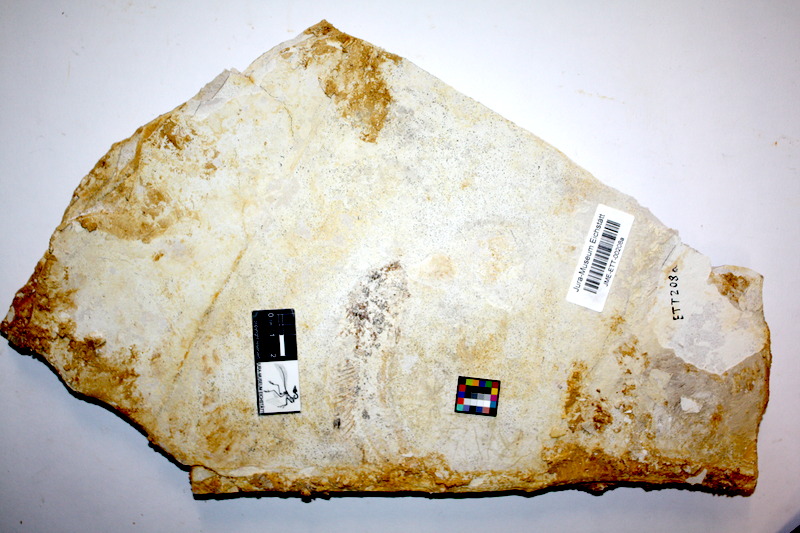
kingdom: Animalia
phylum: Chordata
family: Allothrissopidae
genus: Allothrissops
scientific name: Allothrissops mesogaster
